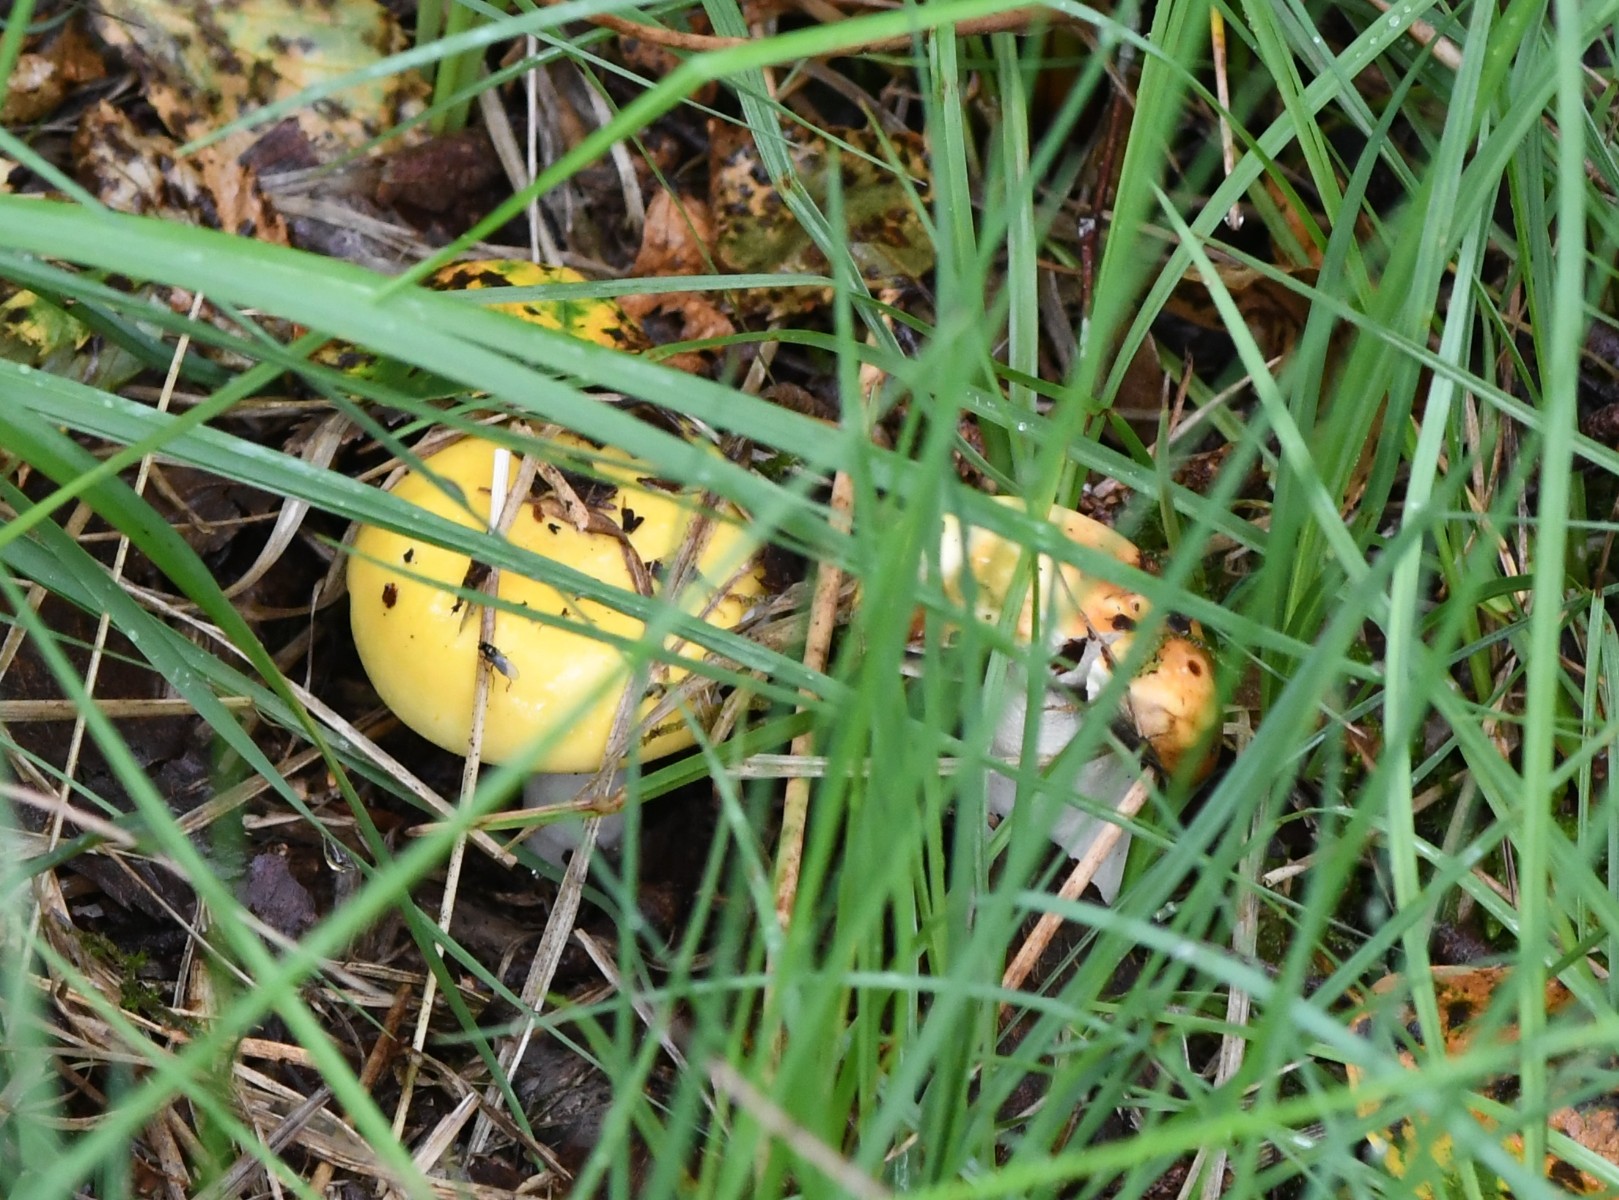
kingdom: Fungi
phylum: Basidiomycota
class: Agaricomycetes
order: Russulales
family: Russulaceae
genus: Russula
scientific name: Russula ochroleuca
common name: okkergul skørhat
